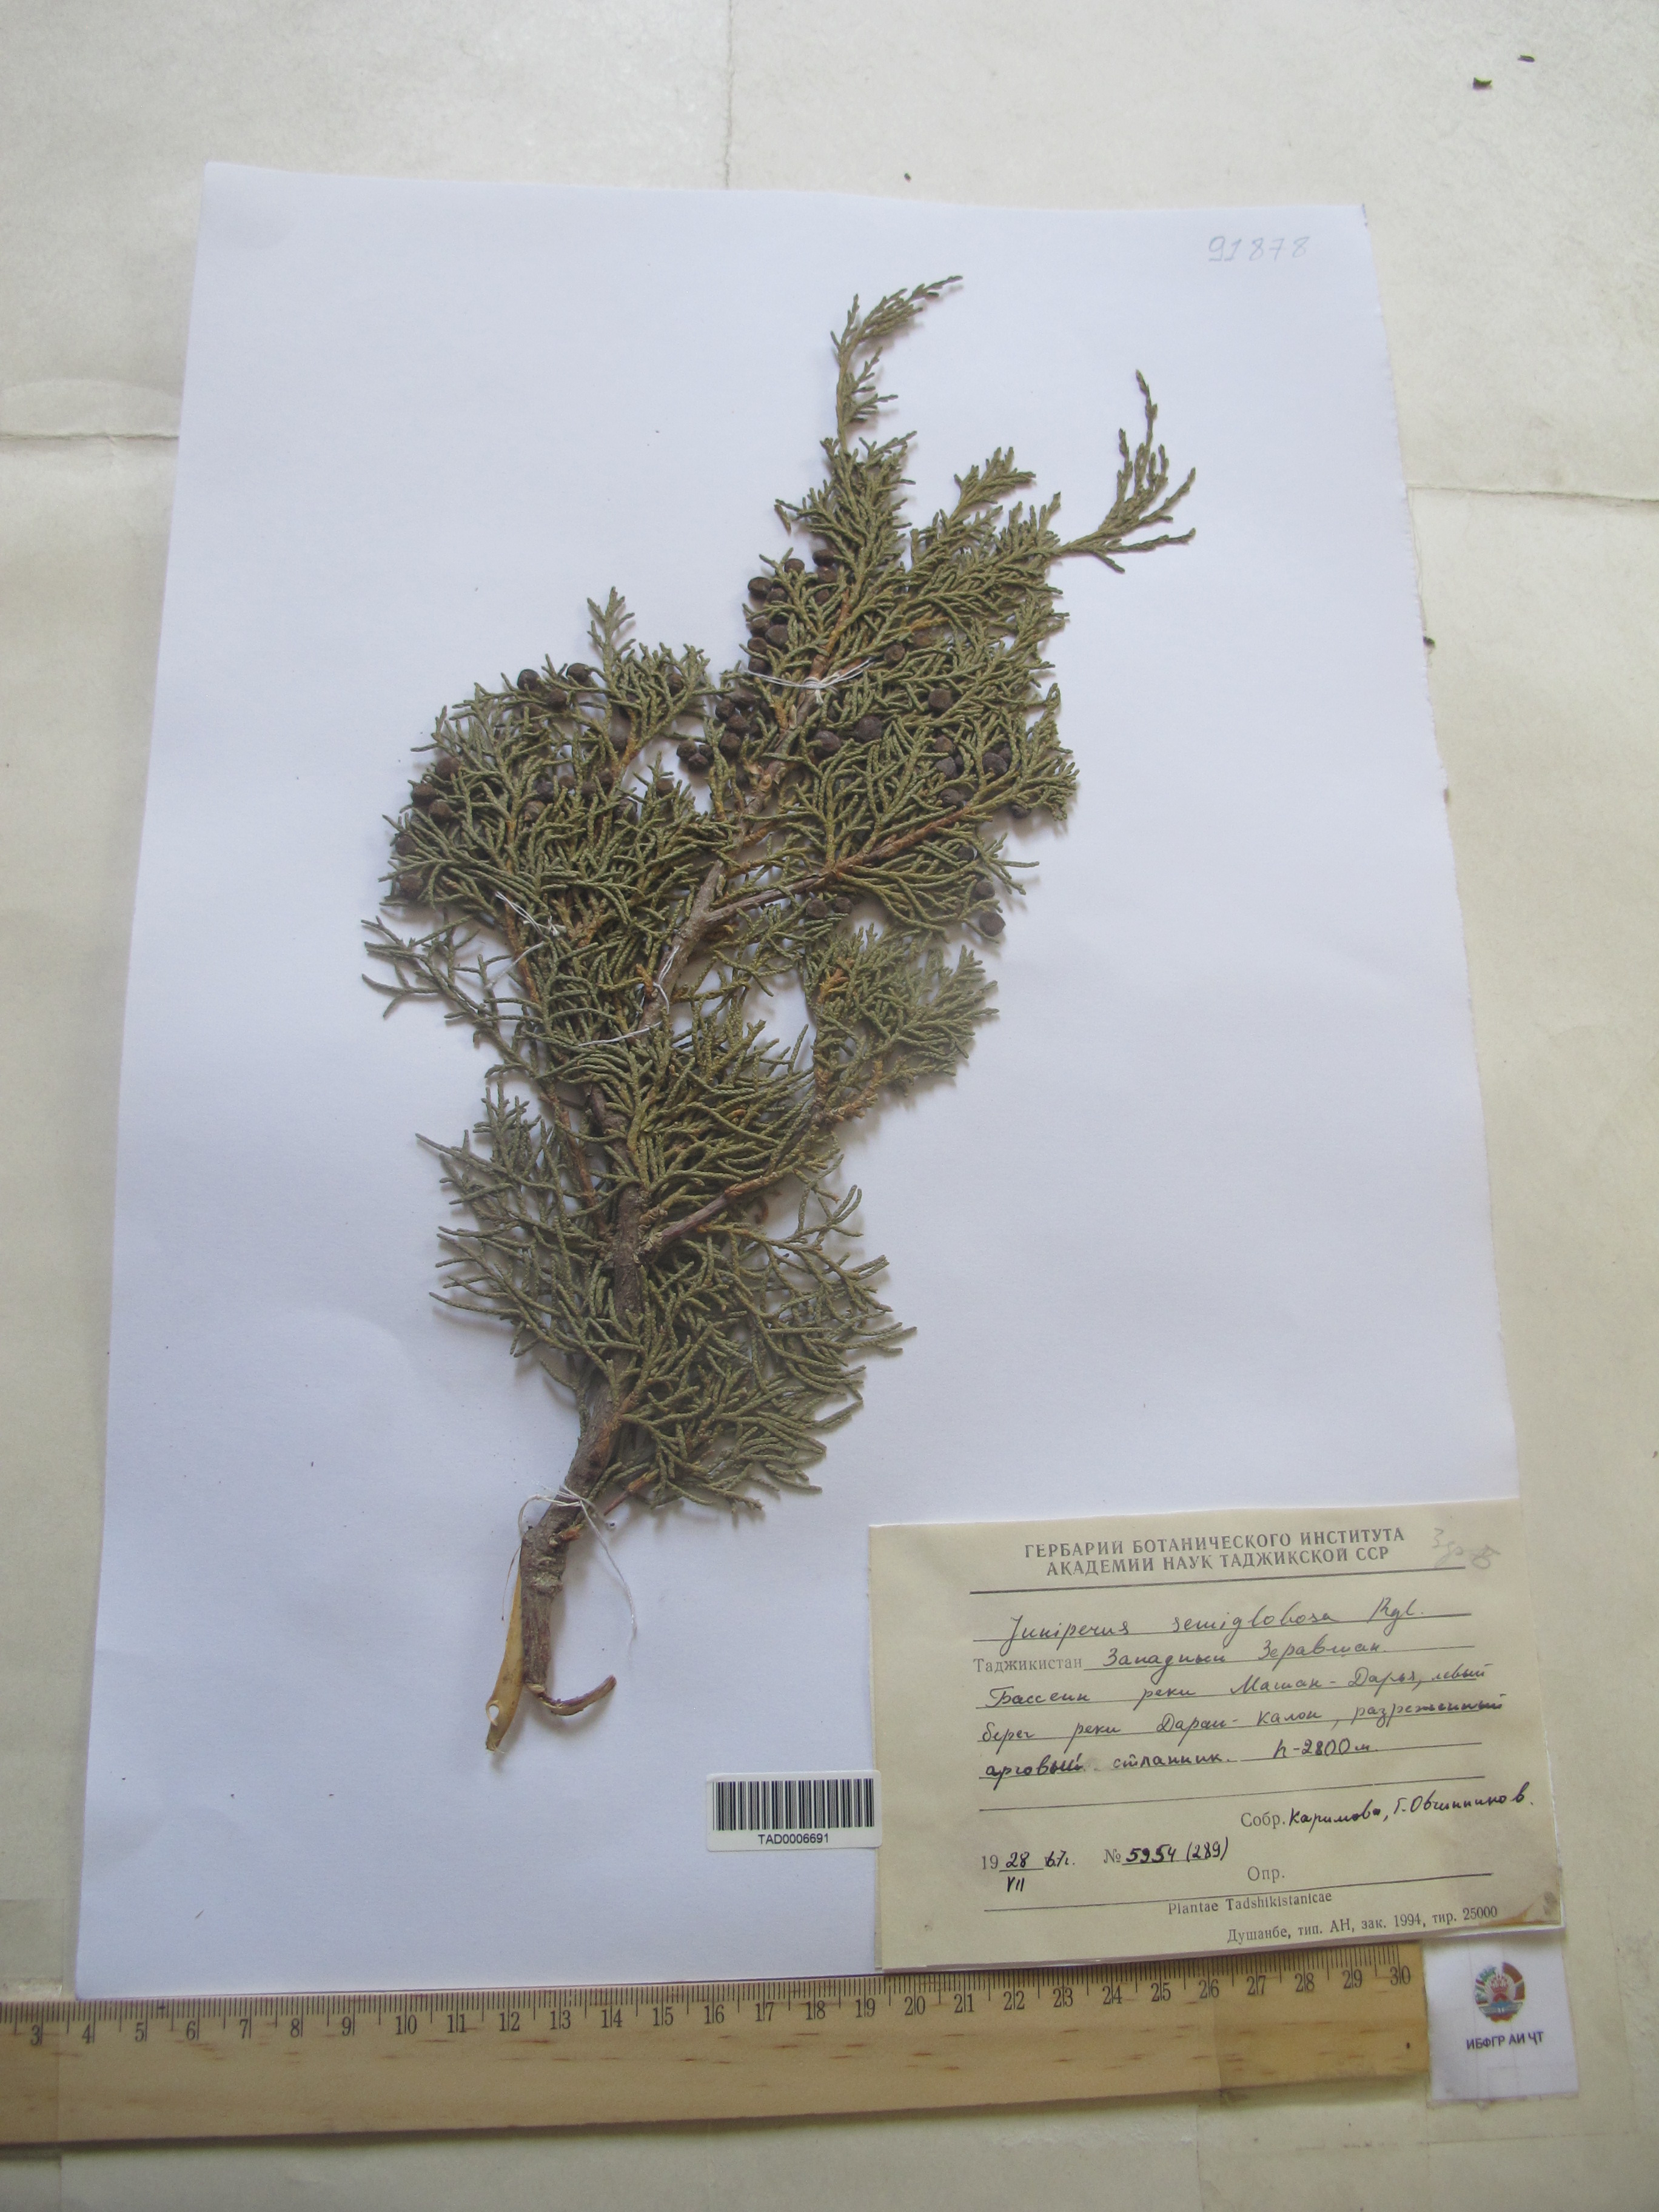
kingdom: Plantae
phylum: Tracheophyta
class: Pinopsida
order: Pinales
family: Cupressaceae
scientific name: Cupressaceae
